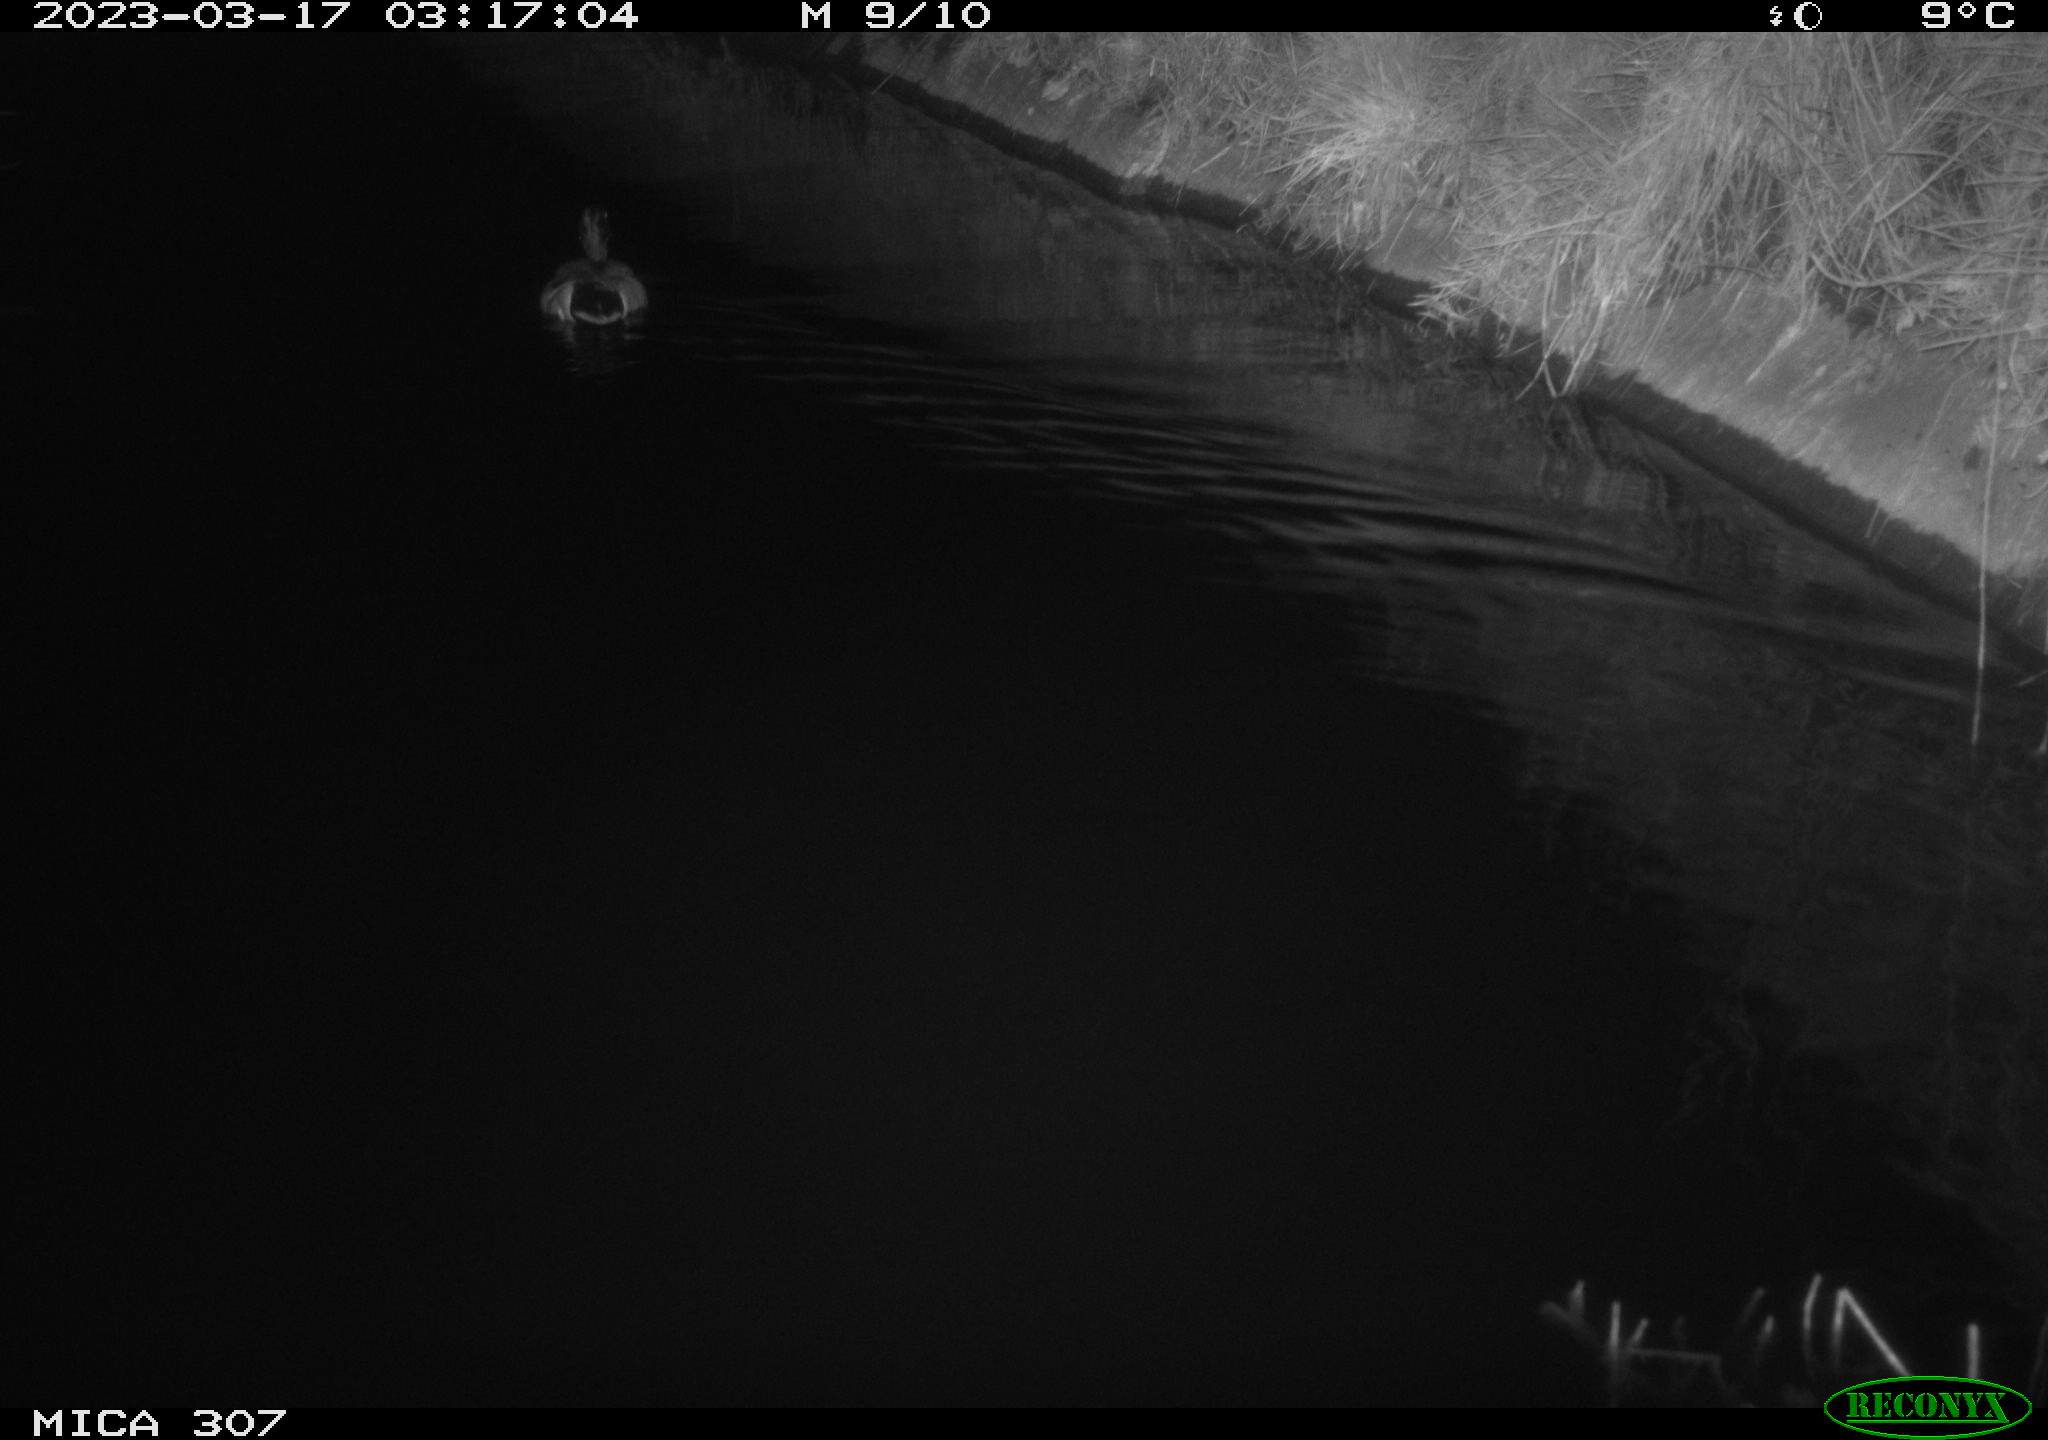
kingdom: Animalia
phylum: Chordata
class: Aves
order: Anseriformes
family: Anatidae
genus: Anas
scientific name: Anas
